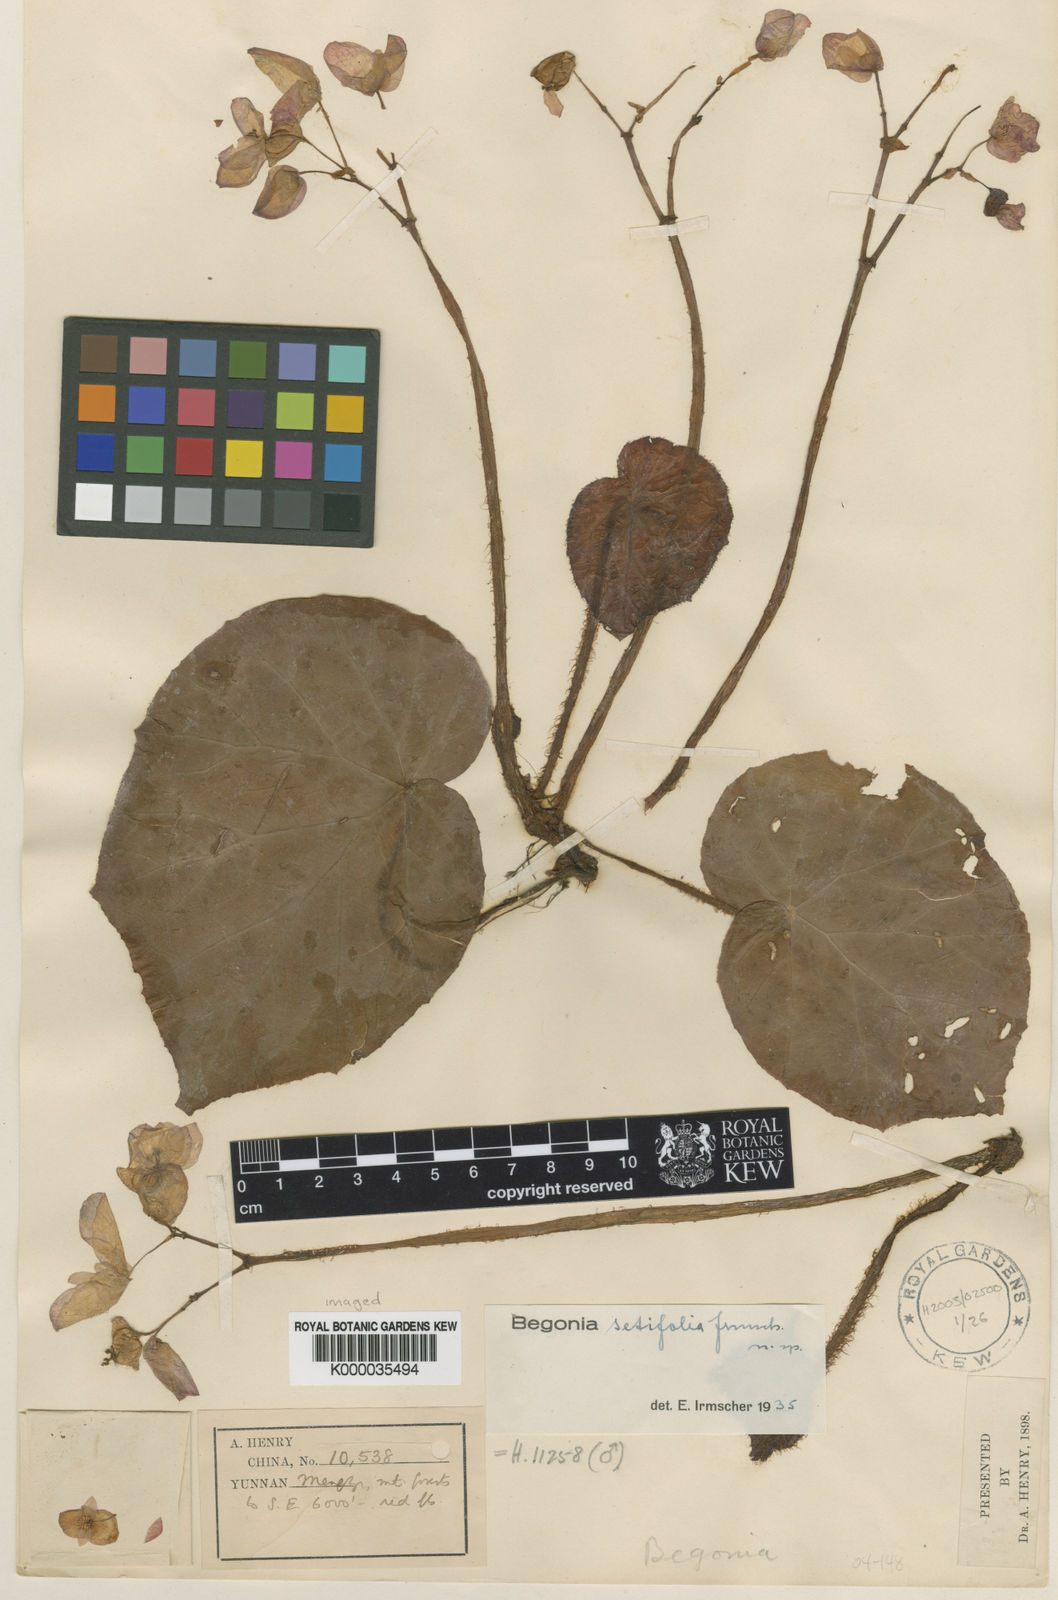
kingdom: Plantae
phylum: Tracheophyta
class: Magnoliopsida
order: Cucurbitales
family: Begoniaceae
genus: Begonia
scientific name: Begonia setifolia
